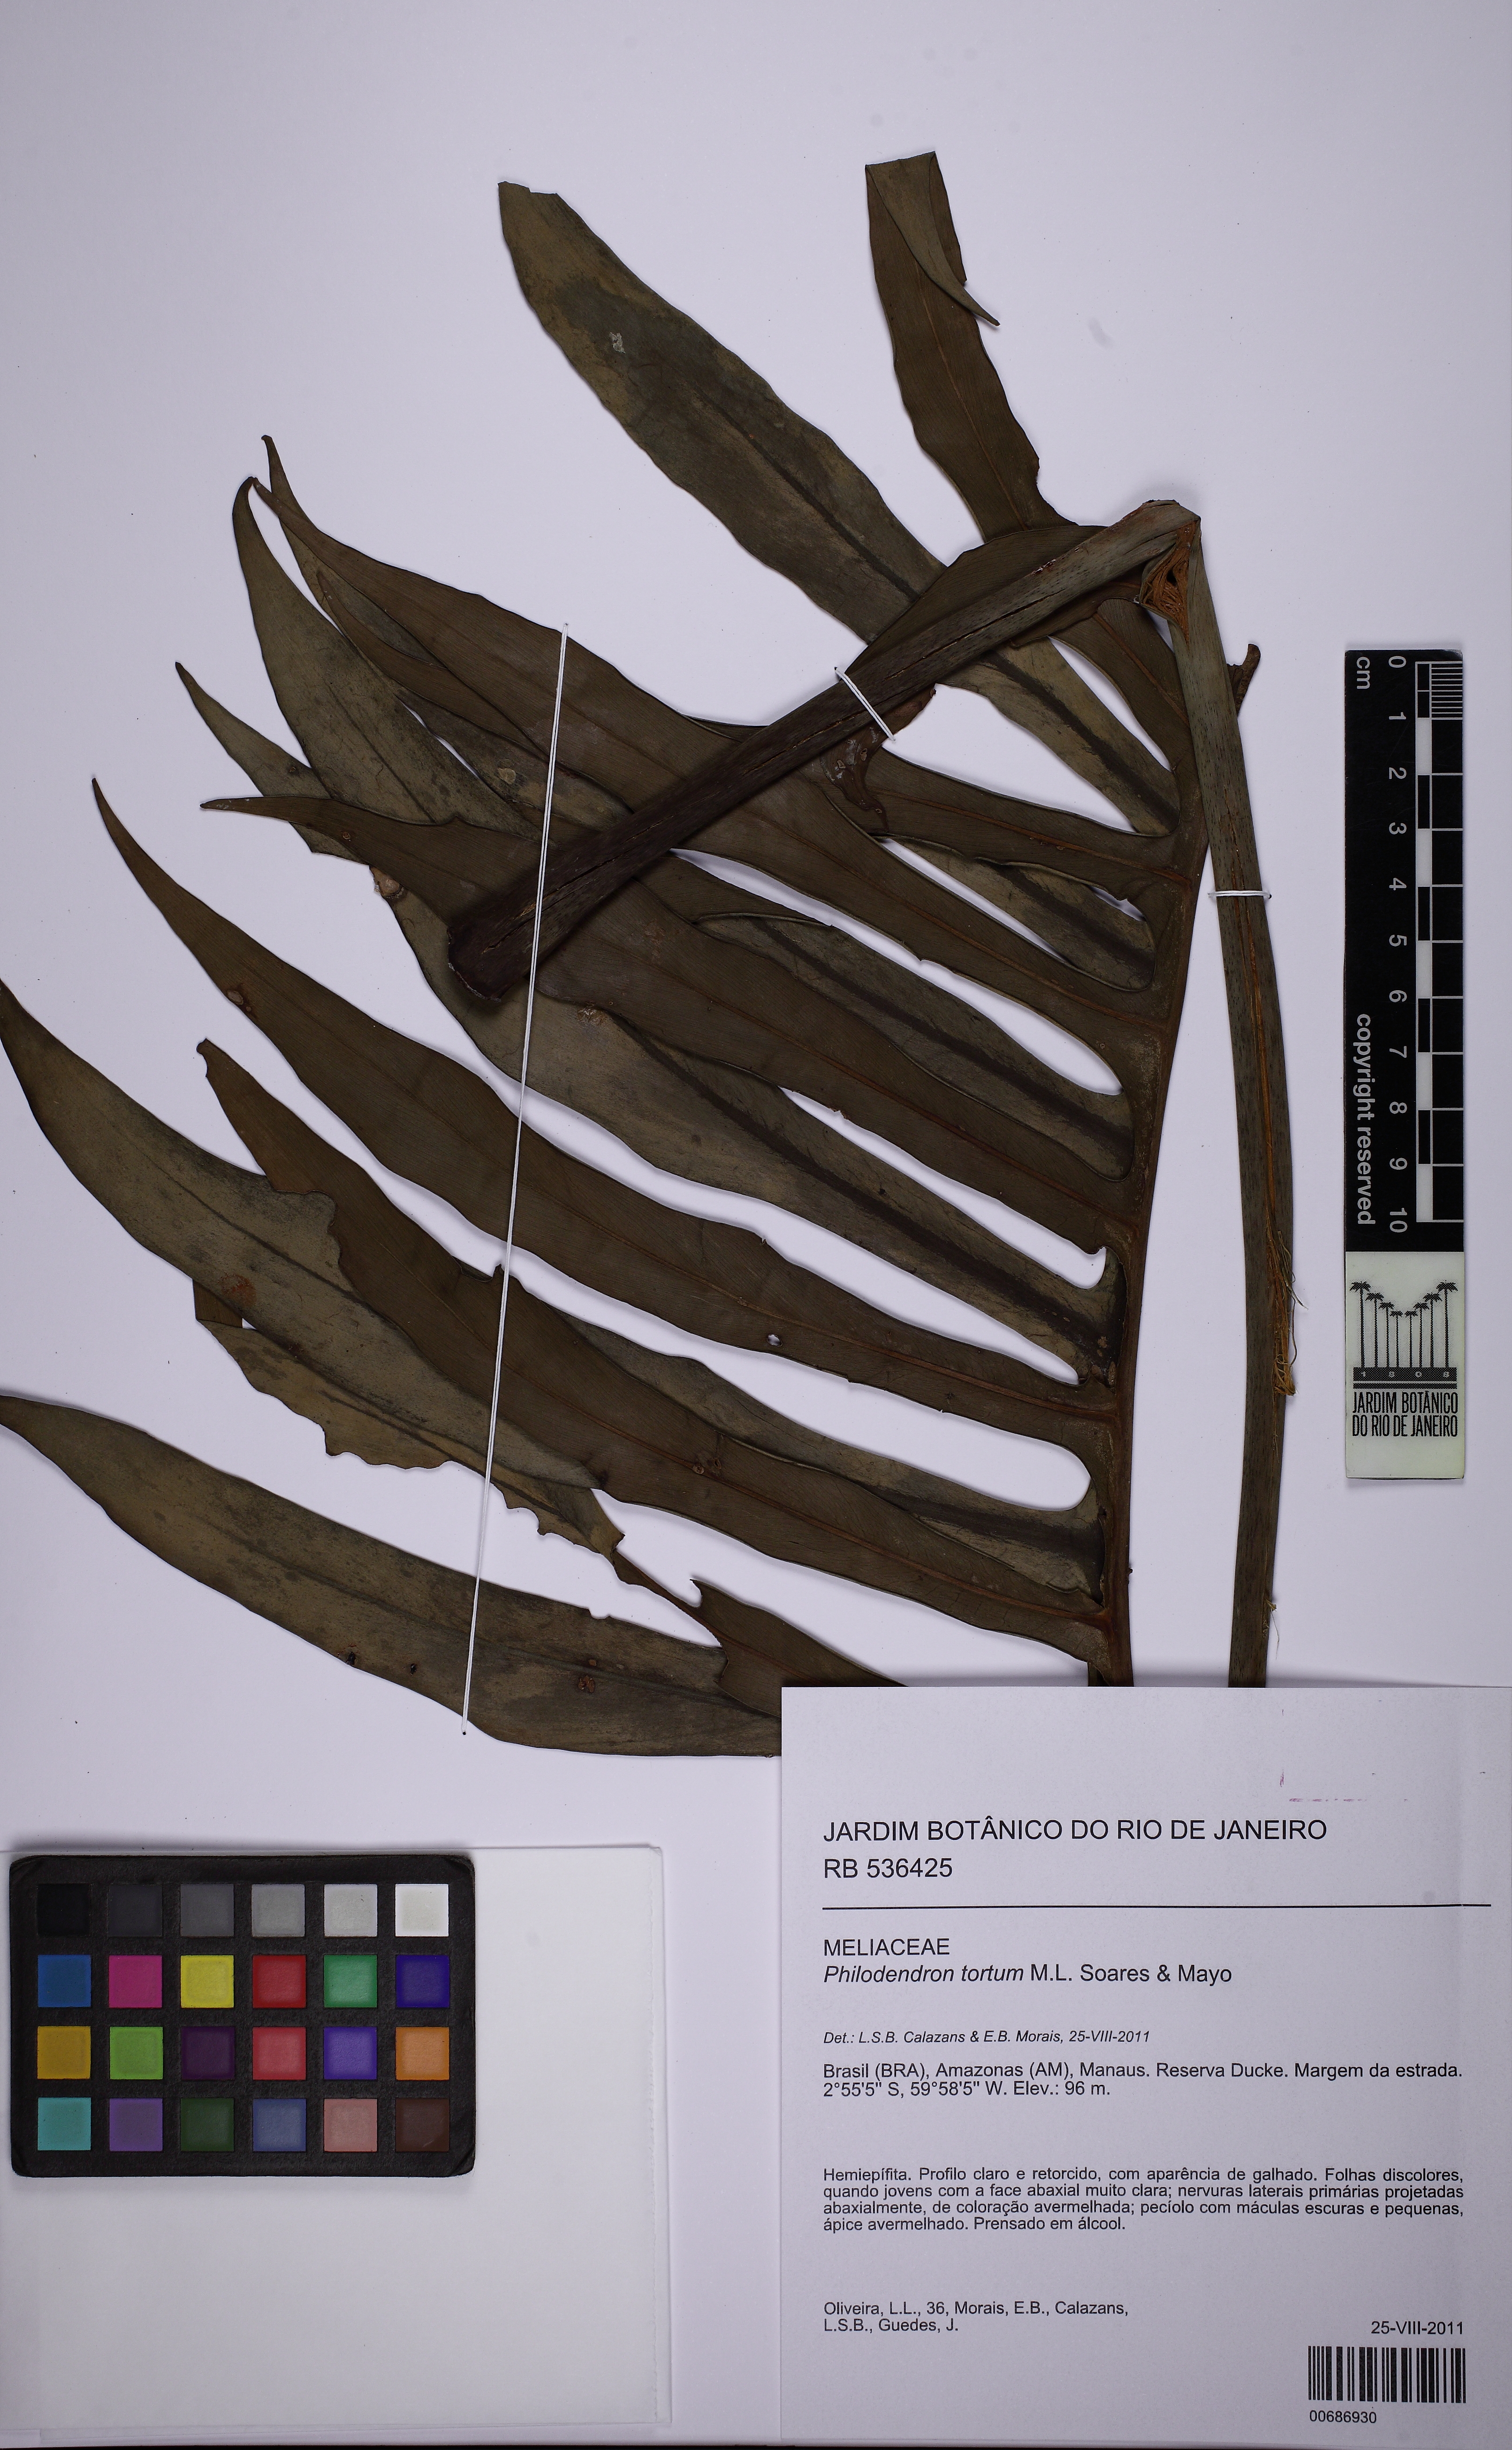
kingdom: Plantae
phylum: Tracheophyta
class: Liliopsida
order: Alismatales
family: Araceae
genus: Philodendron
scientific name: Philodendron tortum
